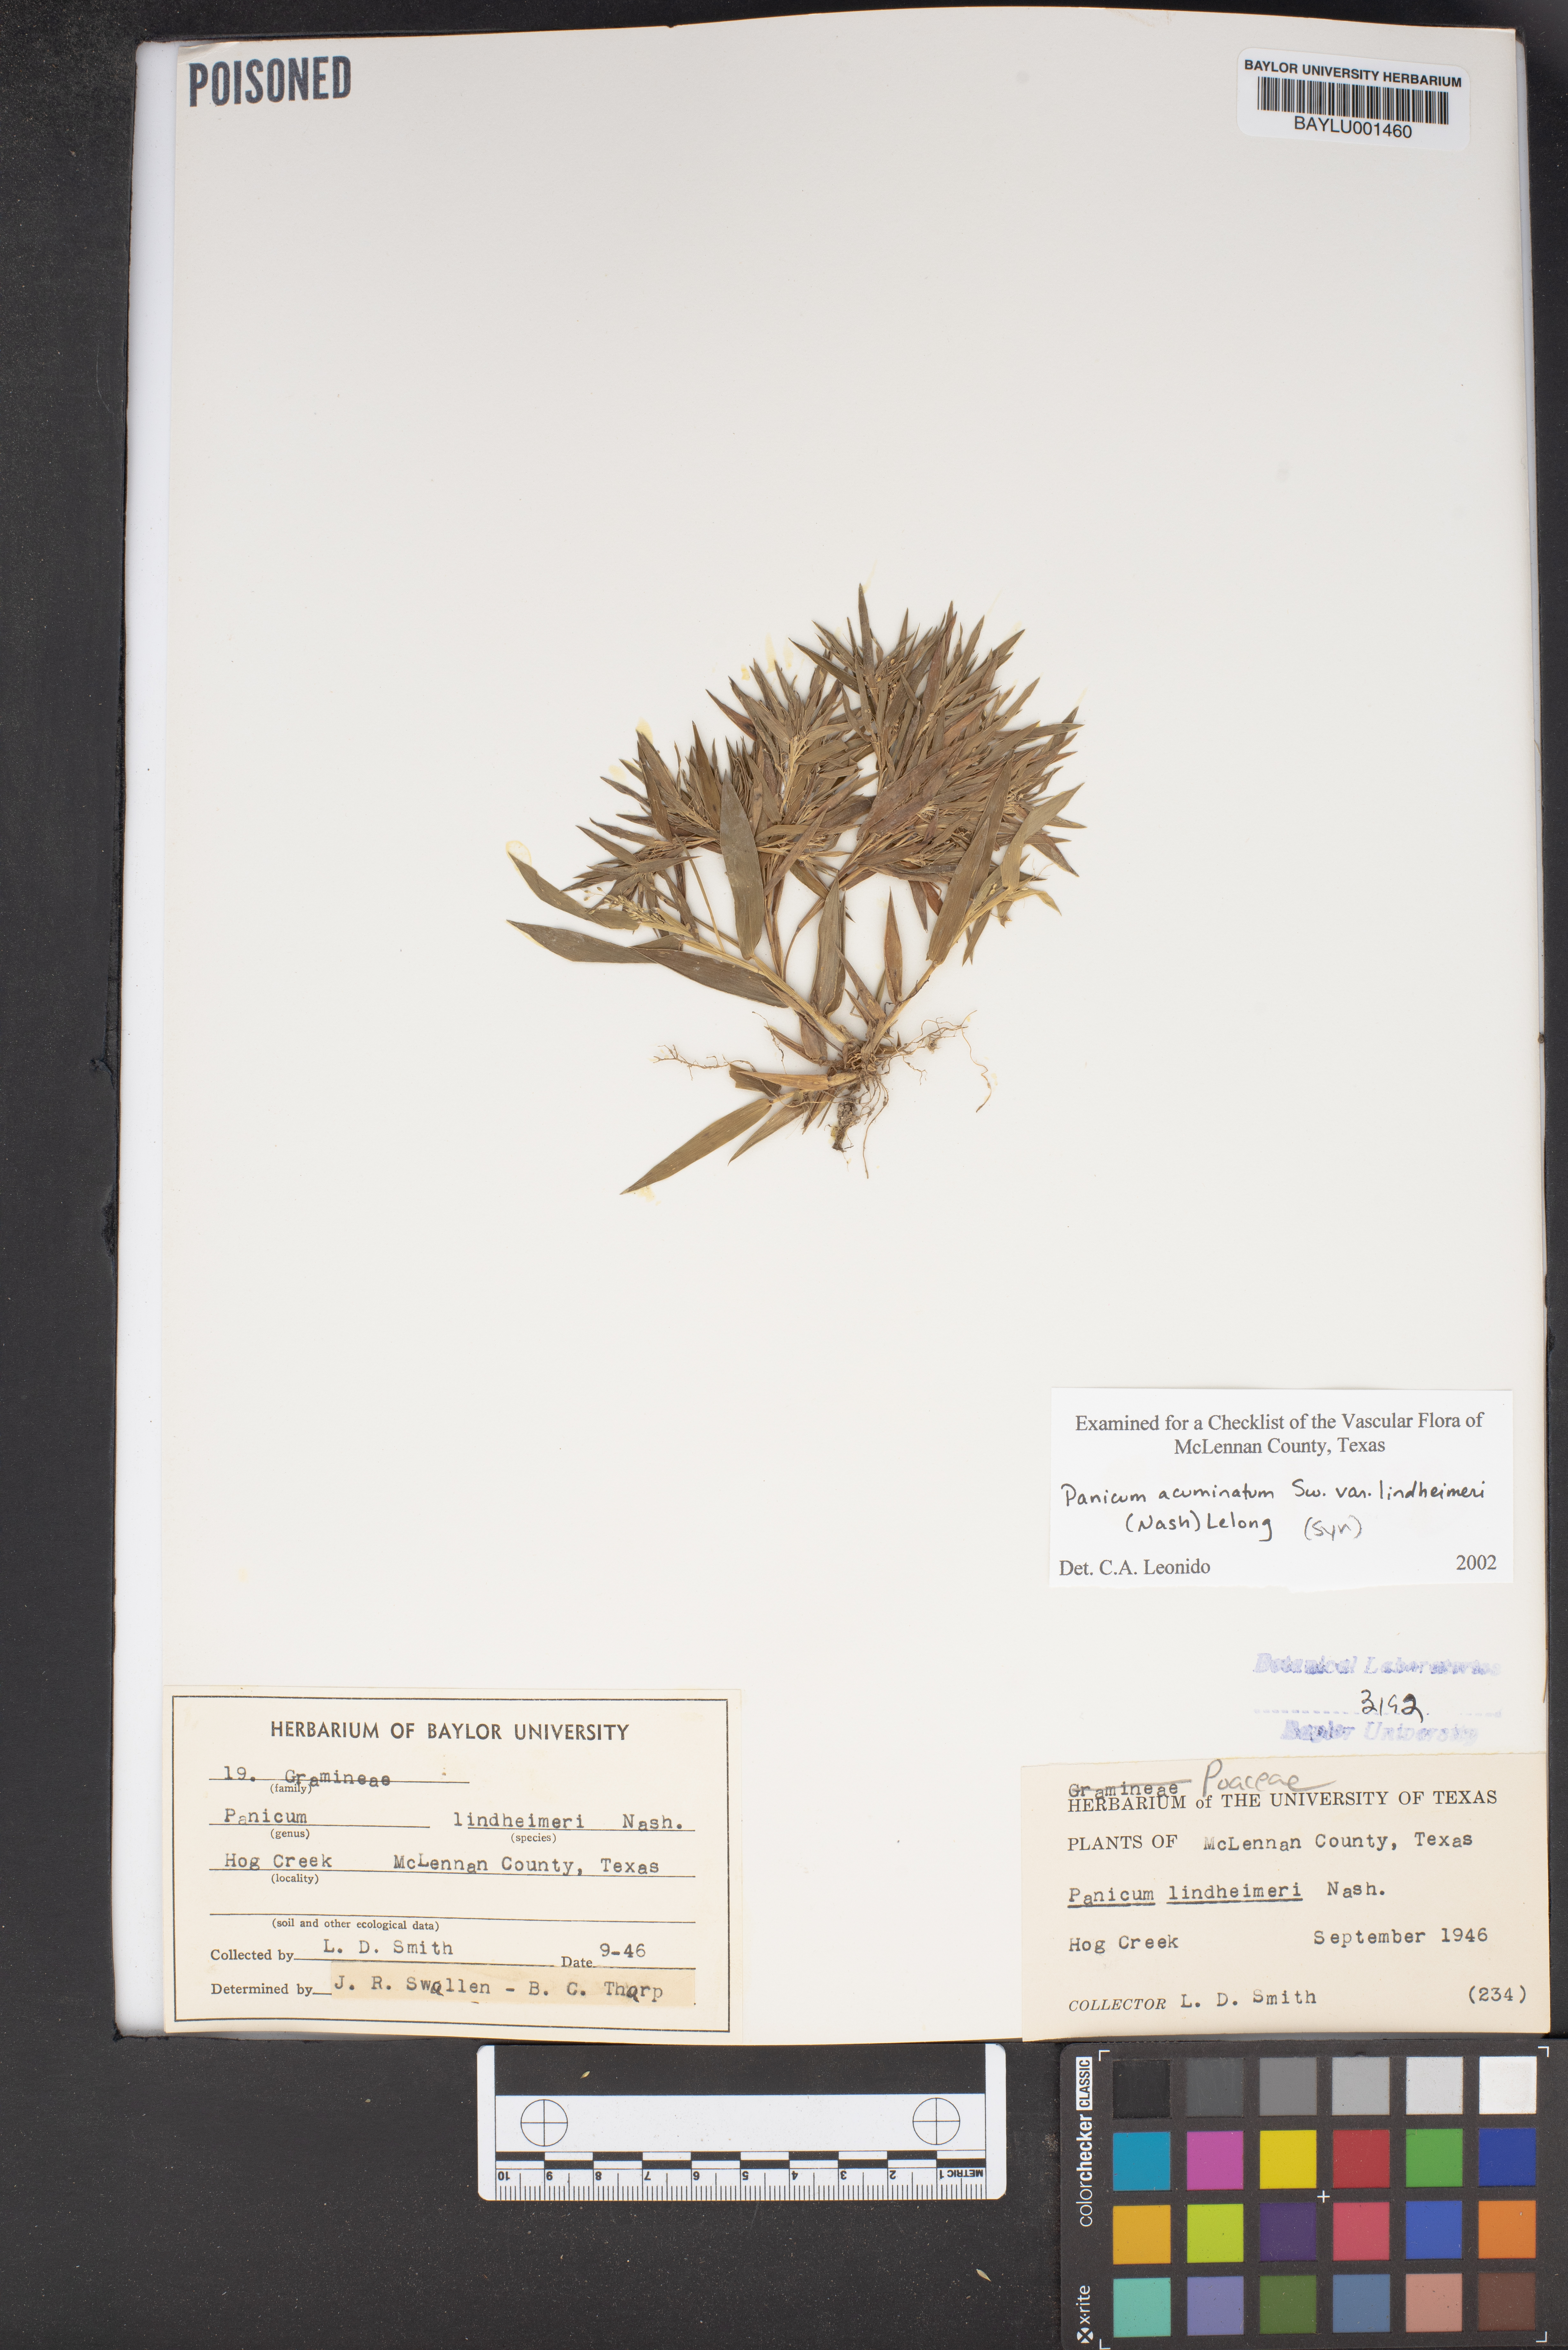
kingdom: Plantae
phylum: Tracheophyta
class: Liliopsida
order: Poales
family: Poaceae
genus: Dichanthelium
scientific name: Dichanthelium acuminatum
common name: Hairy panic grass
